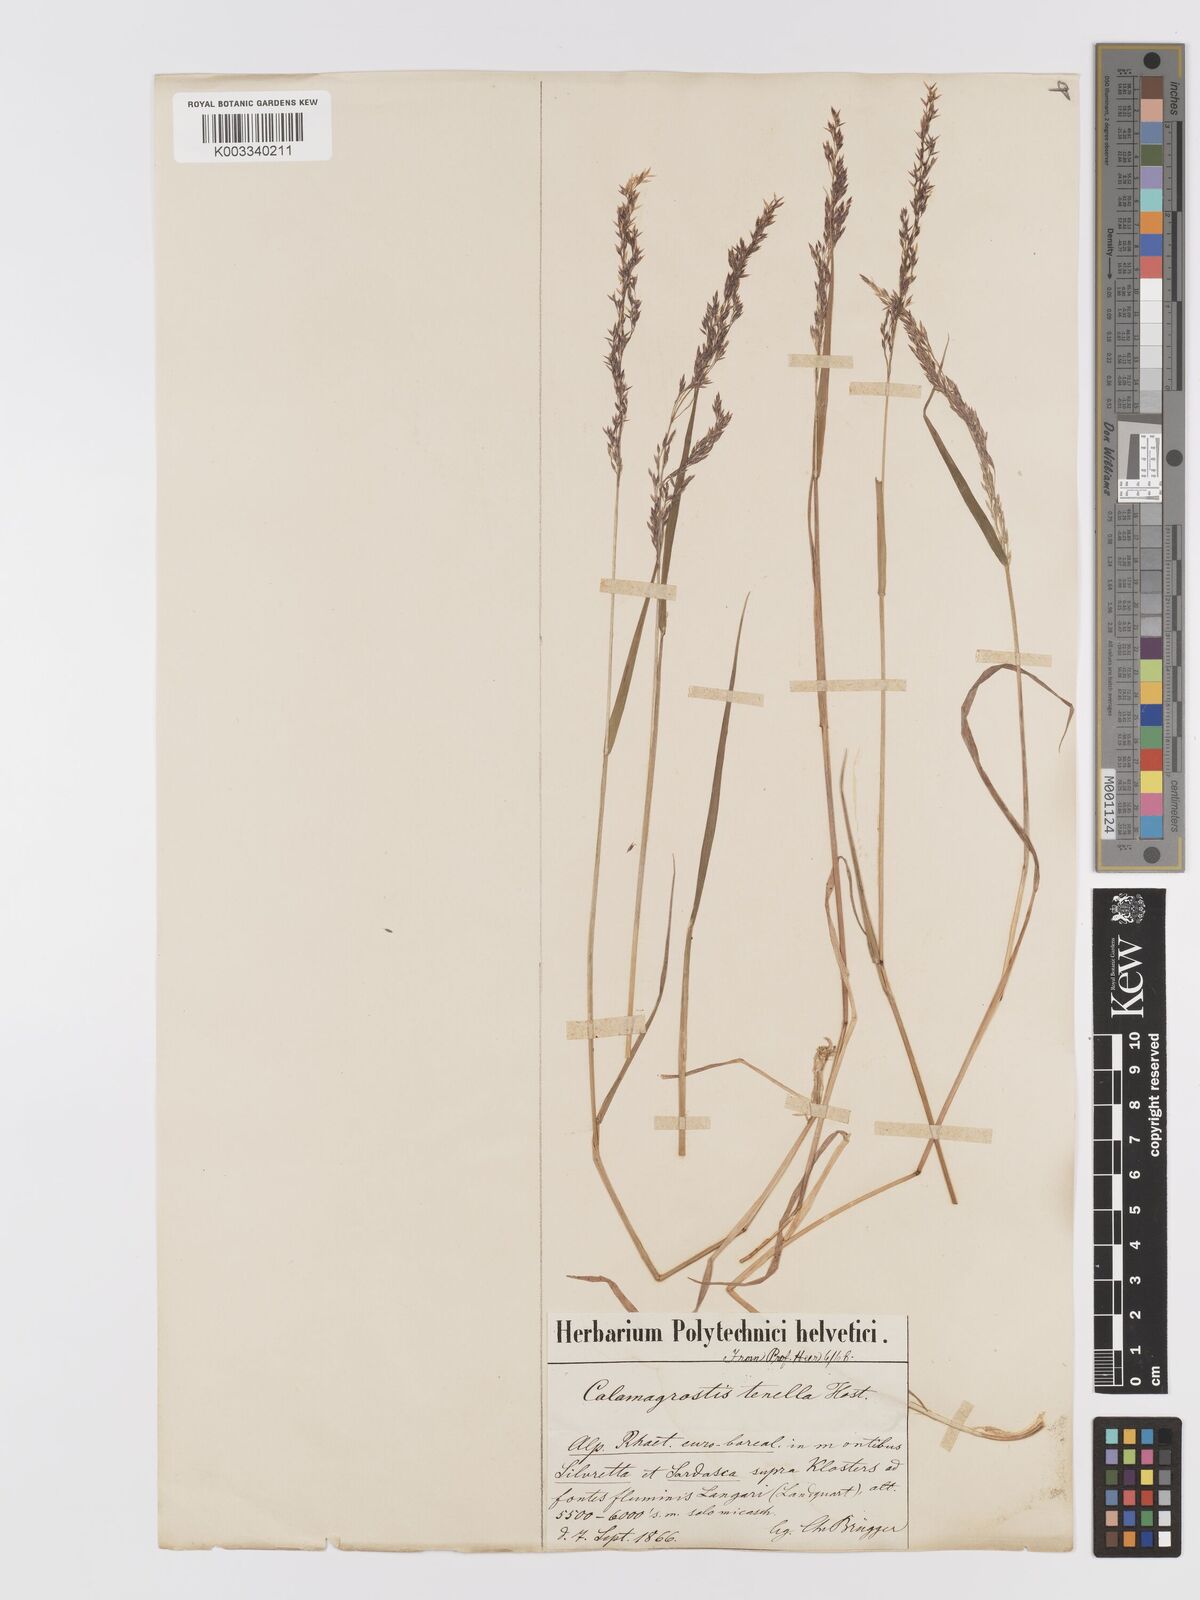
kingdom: Plantae
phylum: Tracheophyta
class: Liliopsida
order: Poales
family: Poaceae
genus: Agrostis
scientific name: Agrostis schraderiana
